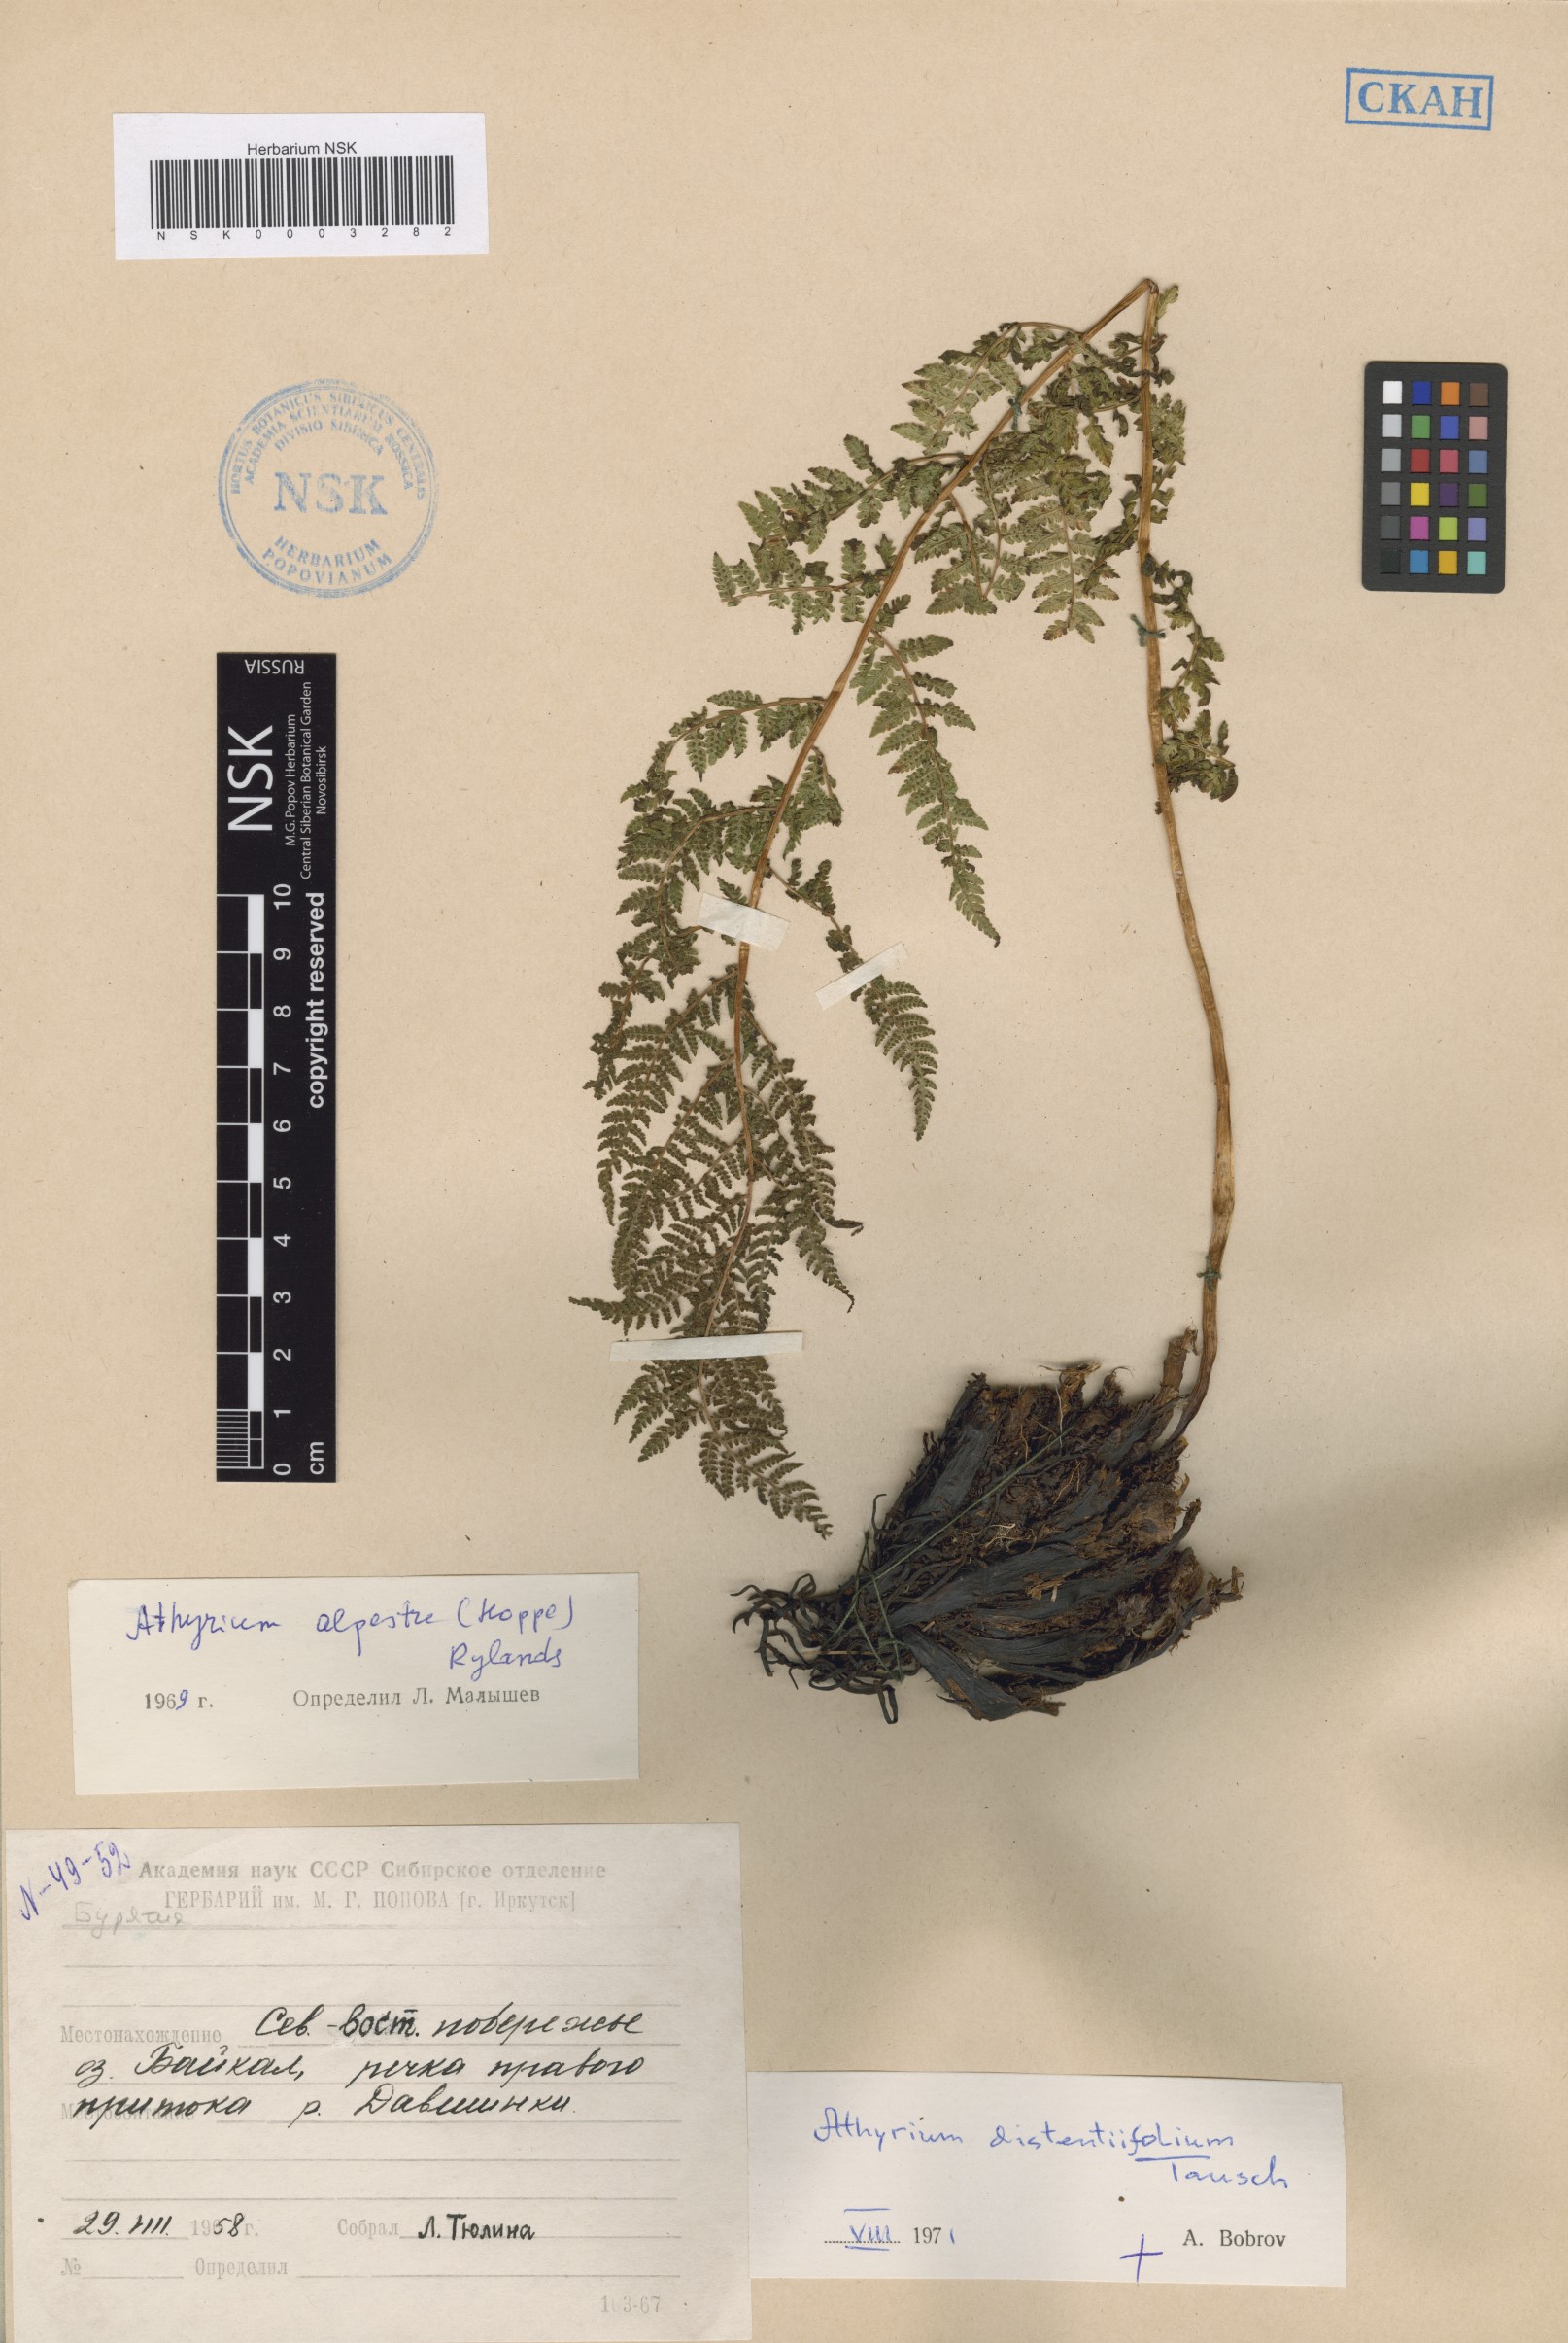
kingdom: Plantae
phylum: Tracheophyta
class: Polypodiopsida
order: Polypodiales
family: Athyriaceae
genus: Pseudathyrium
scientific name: Pseudathyrium alpestre
